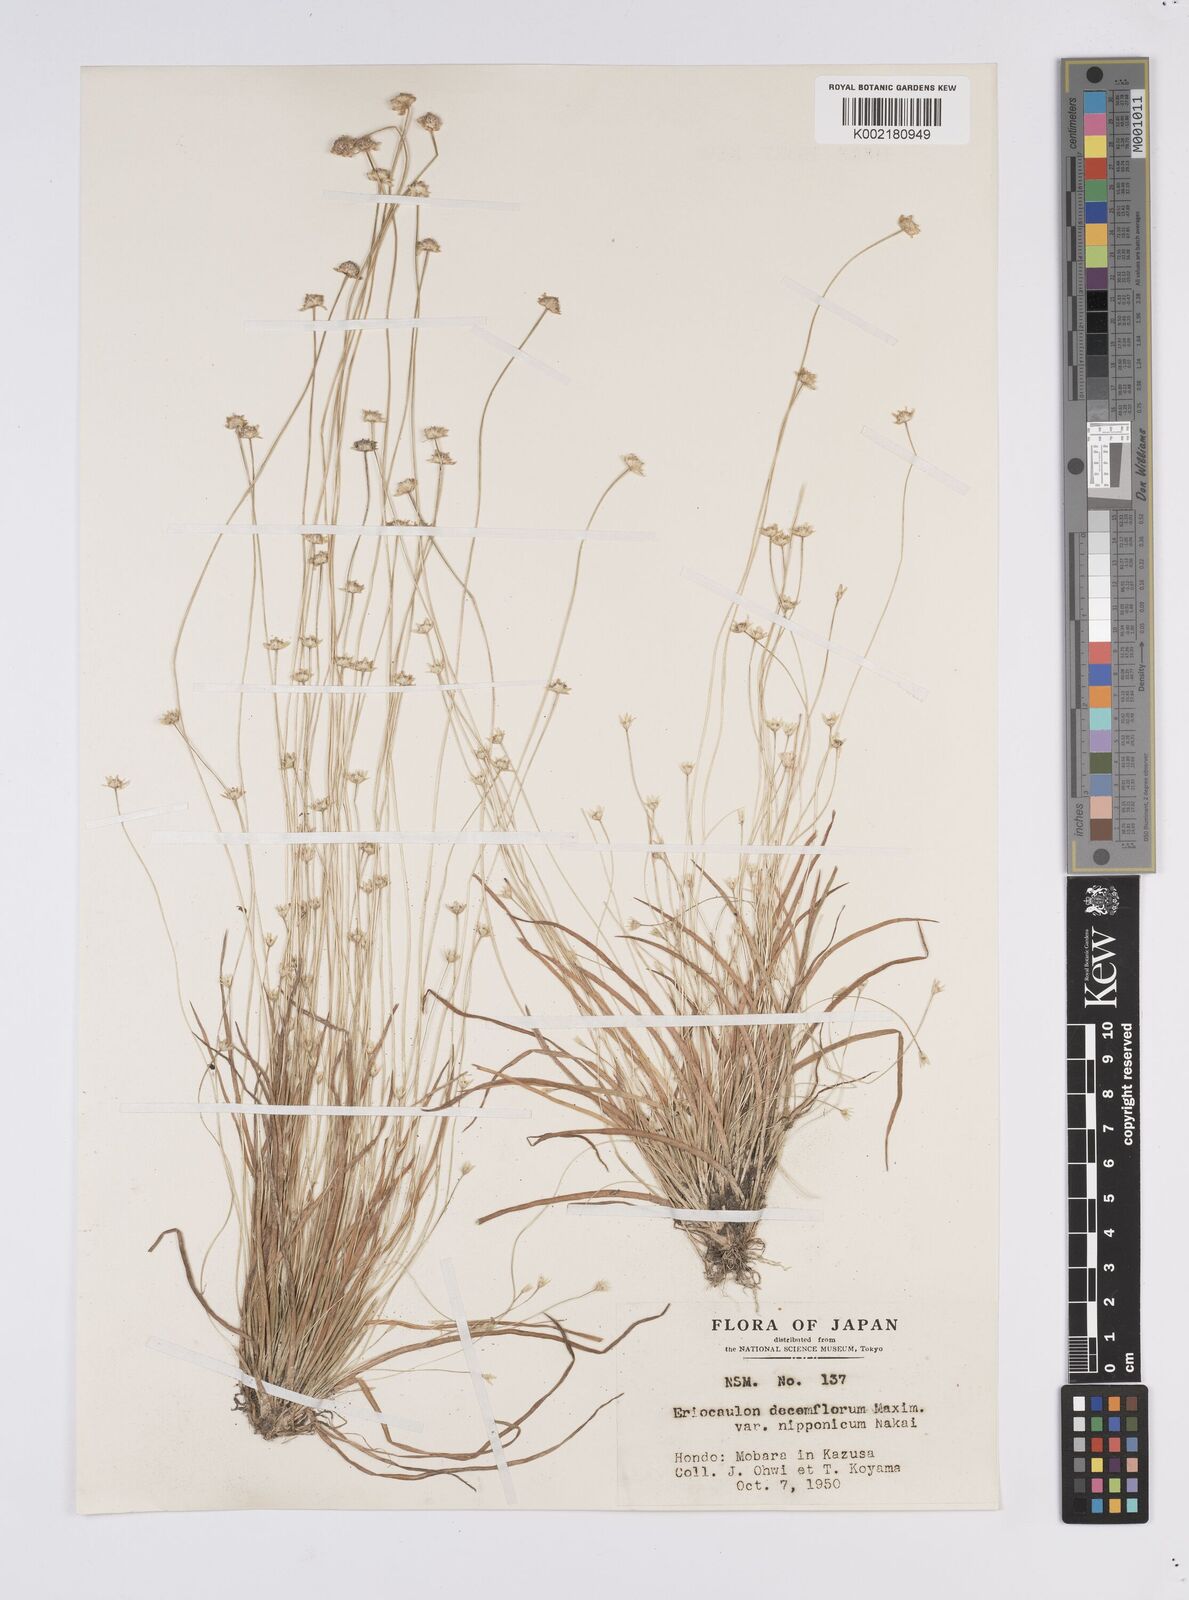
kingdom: Plantae
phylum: Tracheophyta
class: Liliopsida
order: Poales
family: Eriocaulaceae
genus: Eriocaulon
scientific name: Eriocaulon decemflorum
